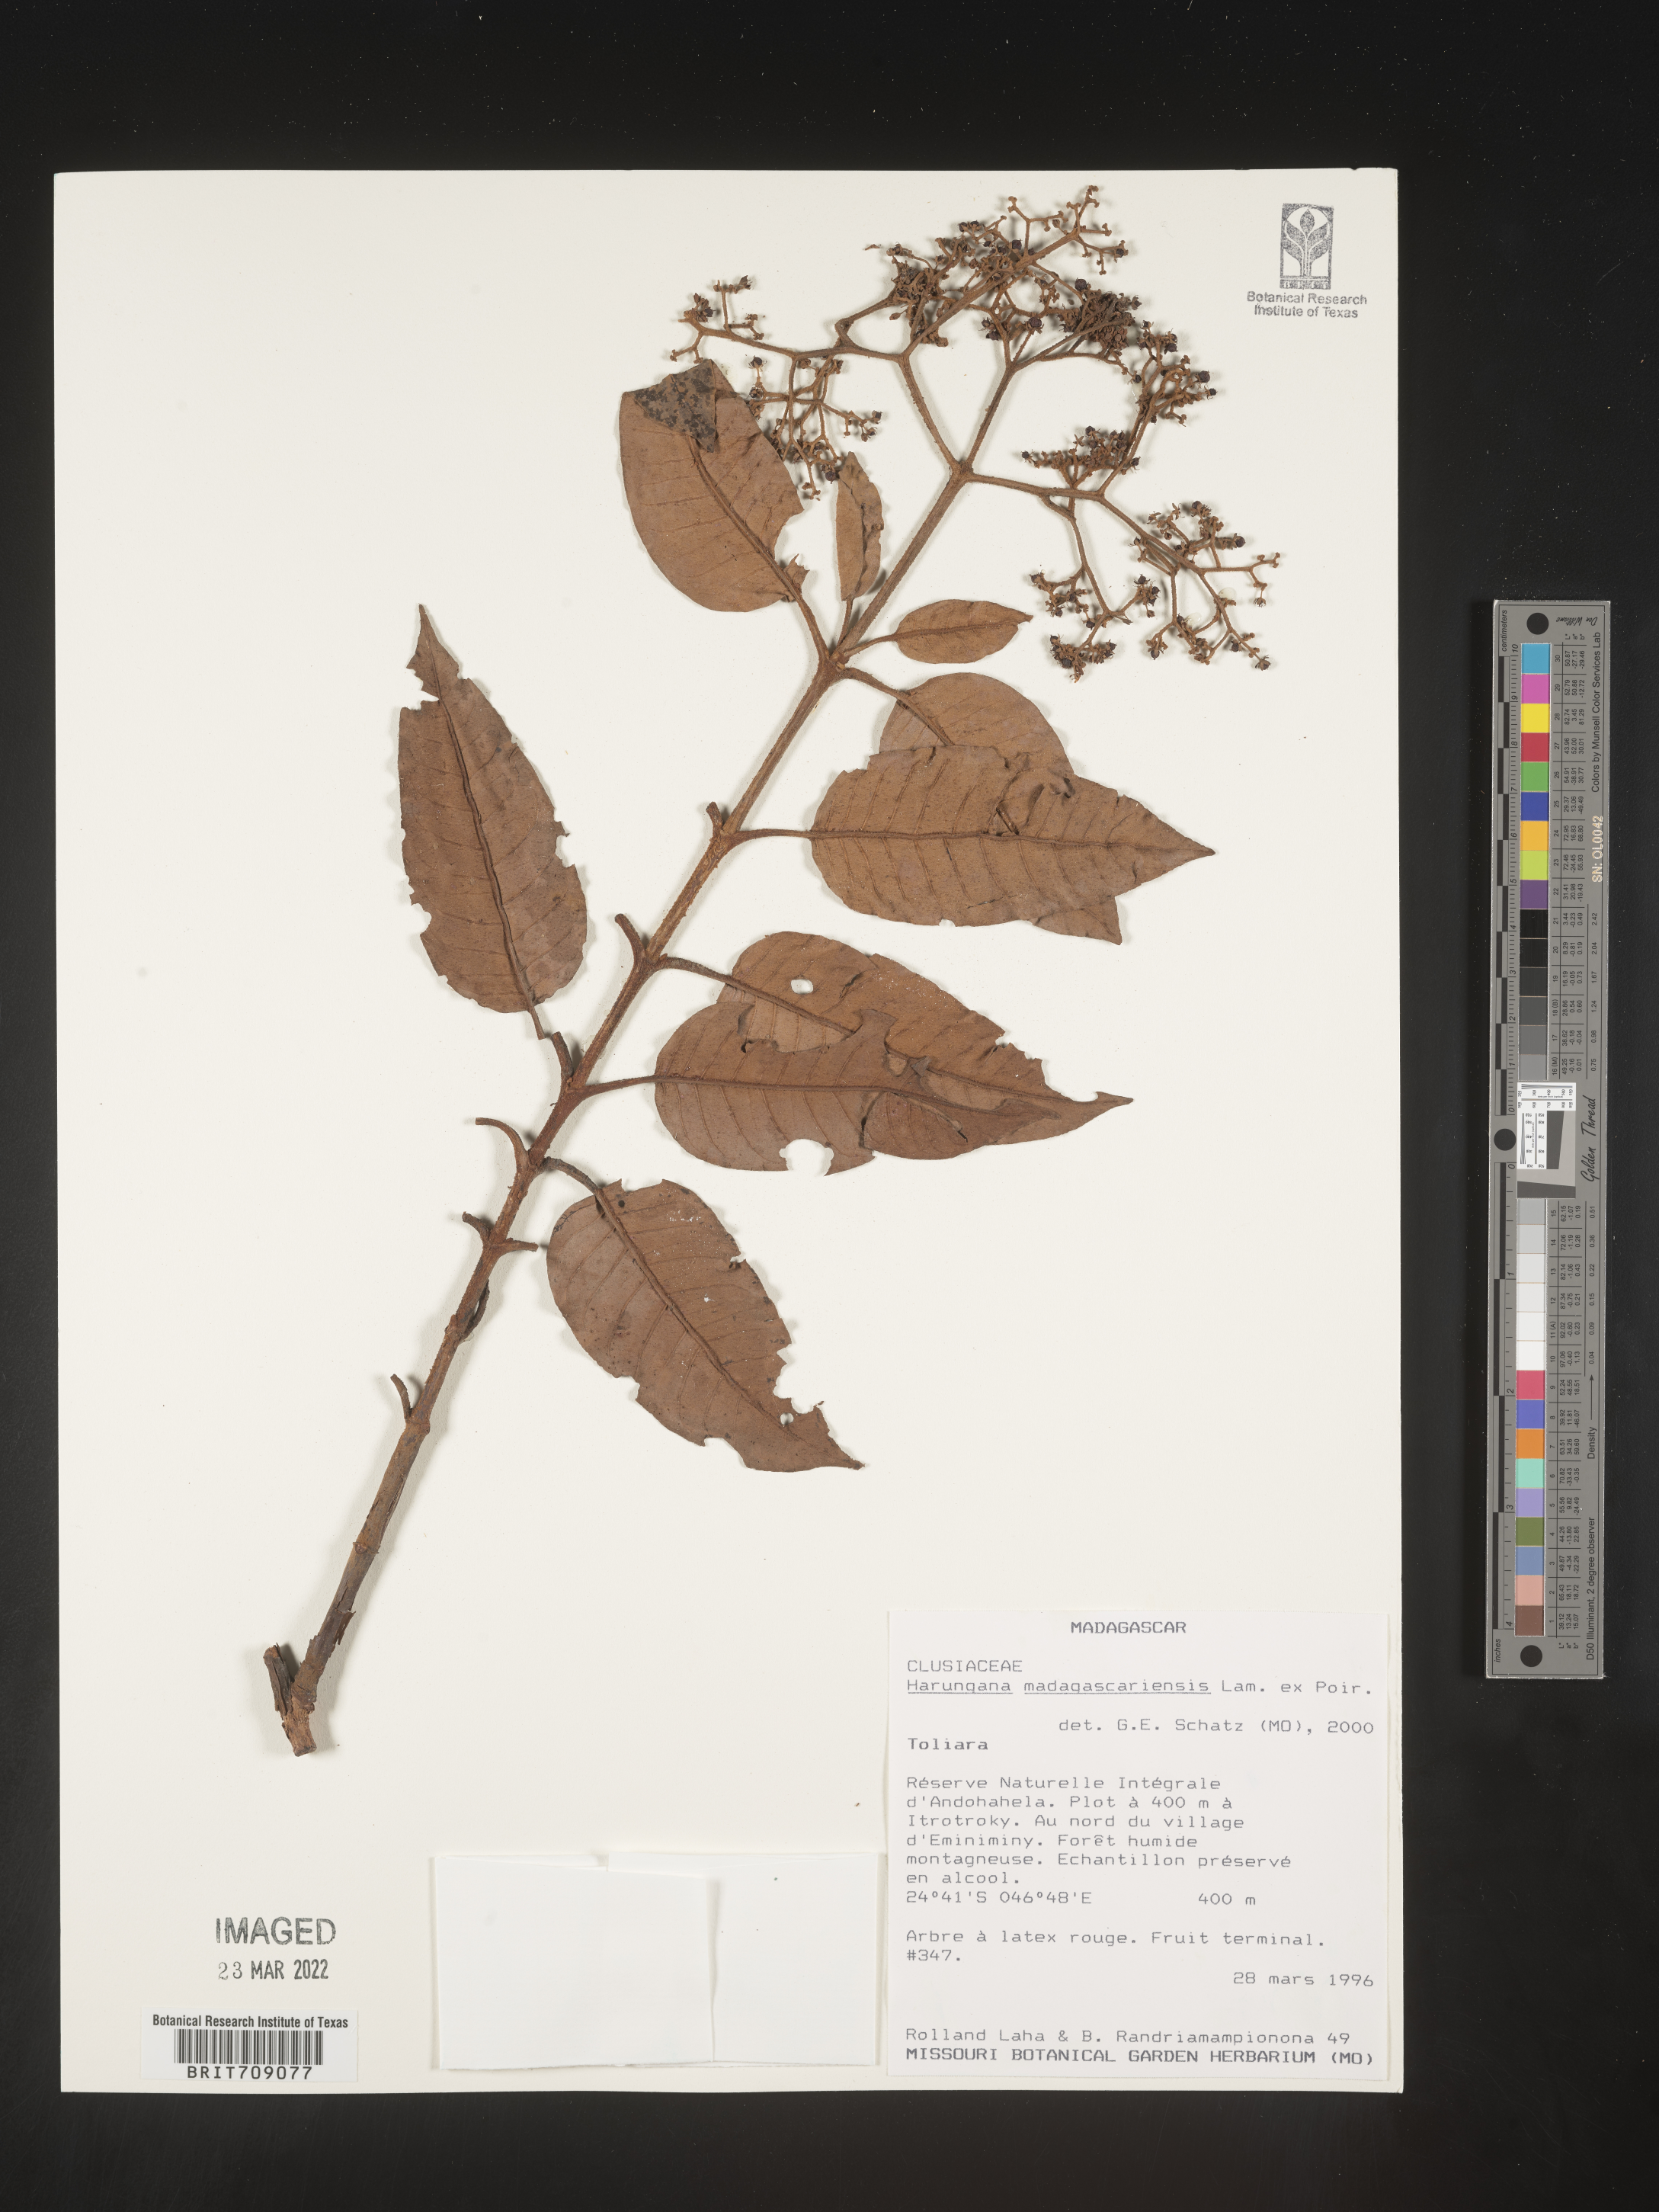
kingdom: Plantae
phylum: Tracheophyta
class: Magnoliopsida
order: Malpighiales
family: Hypericaceae
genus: Harungana
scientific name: Harungana
